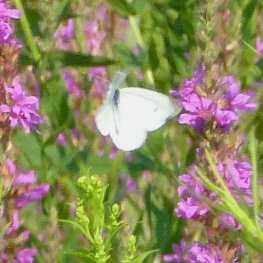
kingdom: Animalia
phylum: Arthropoda
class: Insecta
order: Lepidoptera
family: Pieridae
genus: Pieris
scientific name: Pieris rapae
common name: Cabbage White
